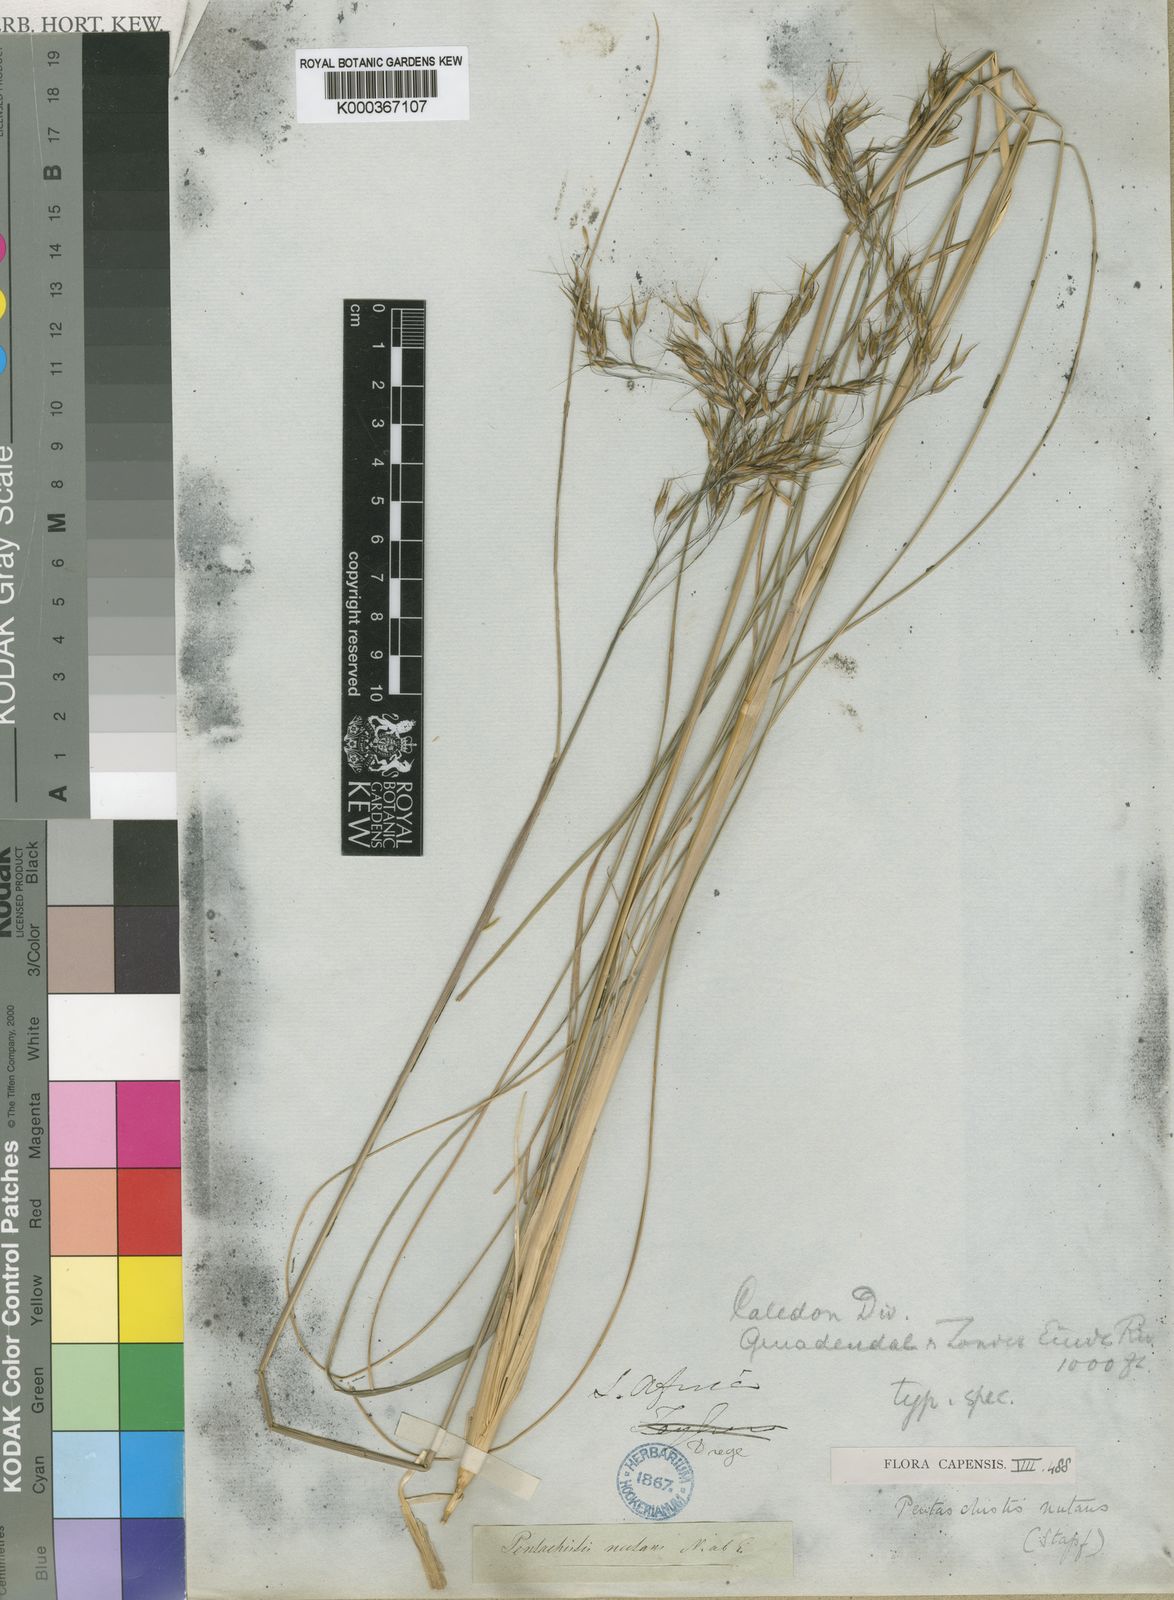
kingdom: Plantae
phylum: Tracheophyta
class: Liliopsida
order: Poales
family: Poaceae
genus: Pentameris
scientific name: Pentameris tortuosa
